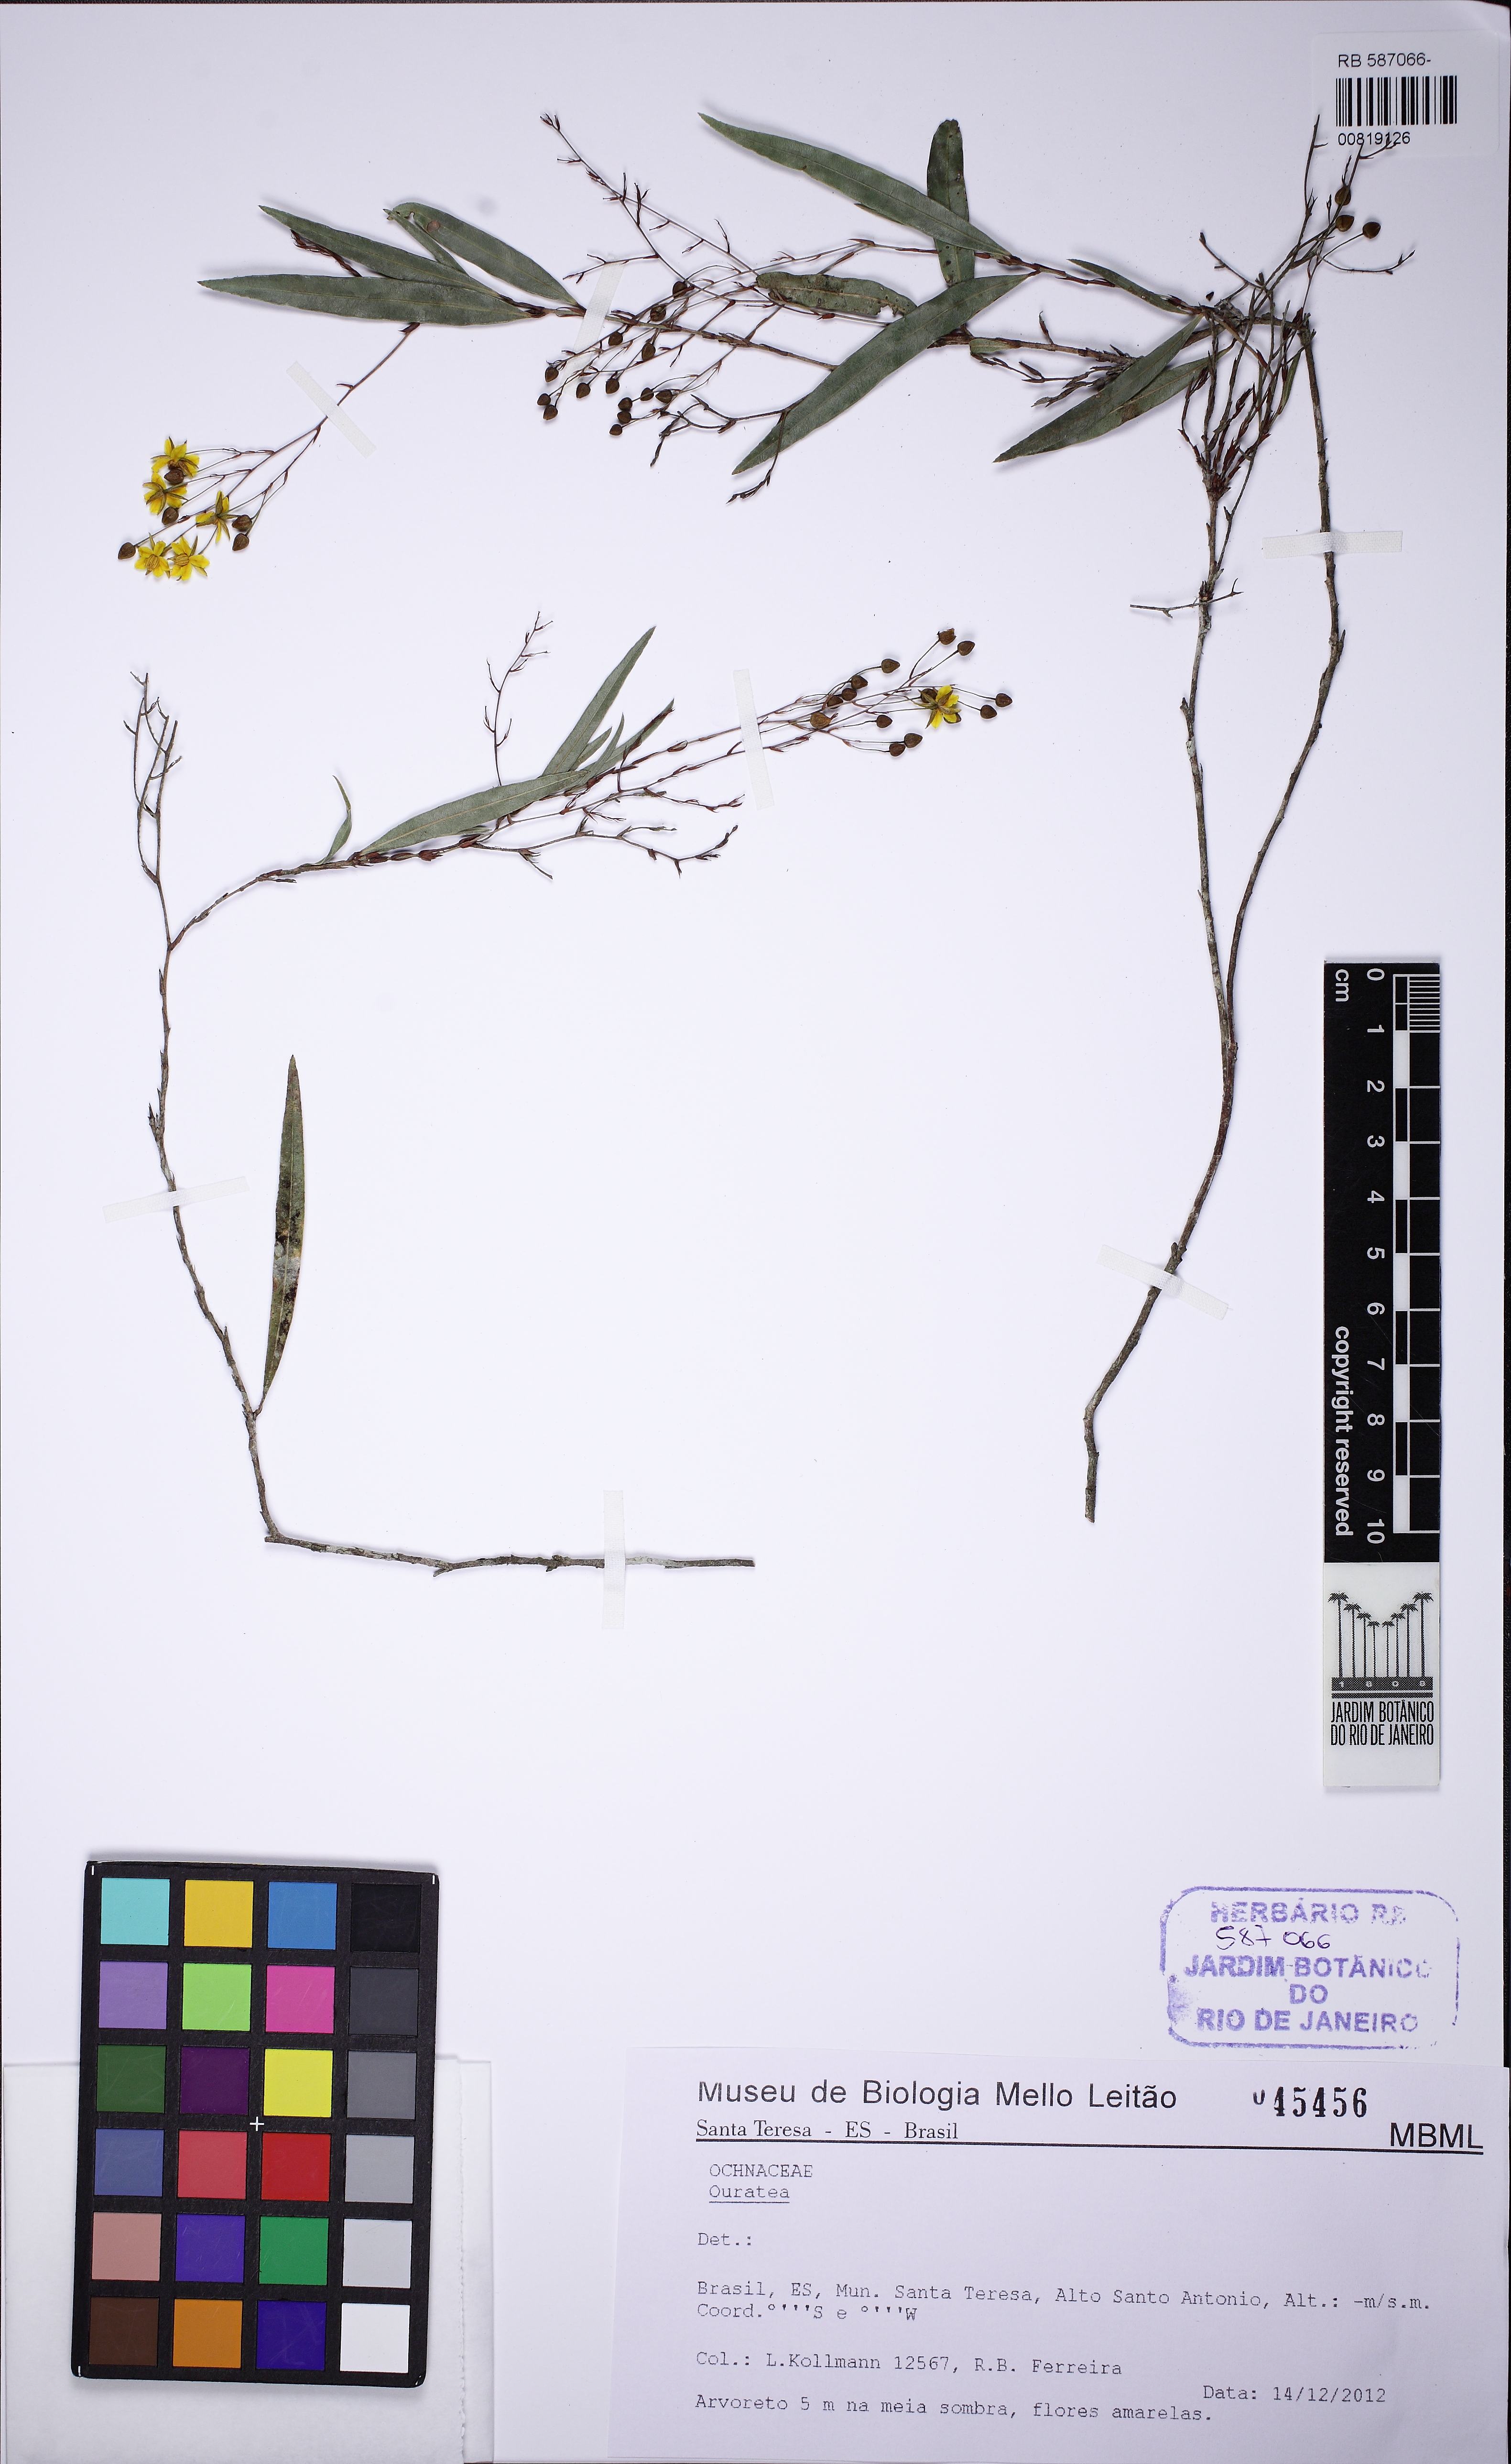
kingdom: Plantae
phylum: Tracheophyta
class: Magnoliopsida
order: Malpighiales
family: Ochnaceae
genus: Ouratea
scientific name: Ouratea
